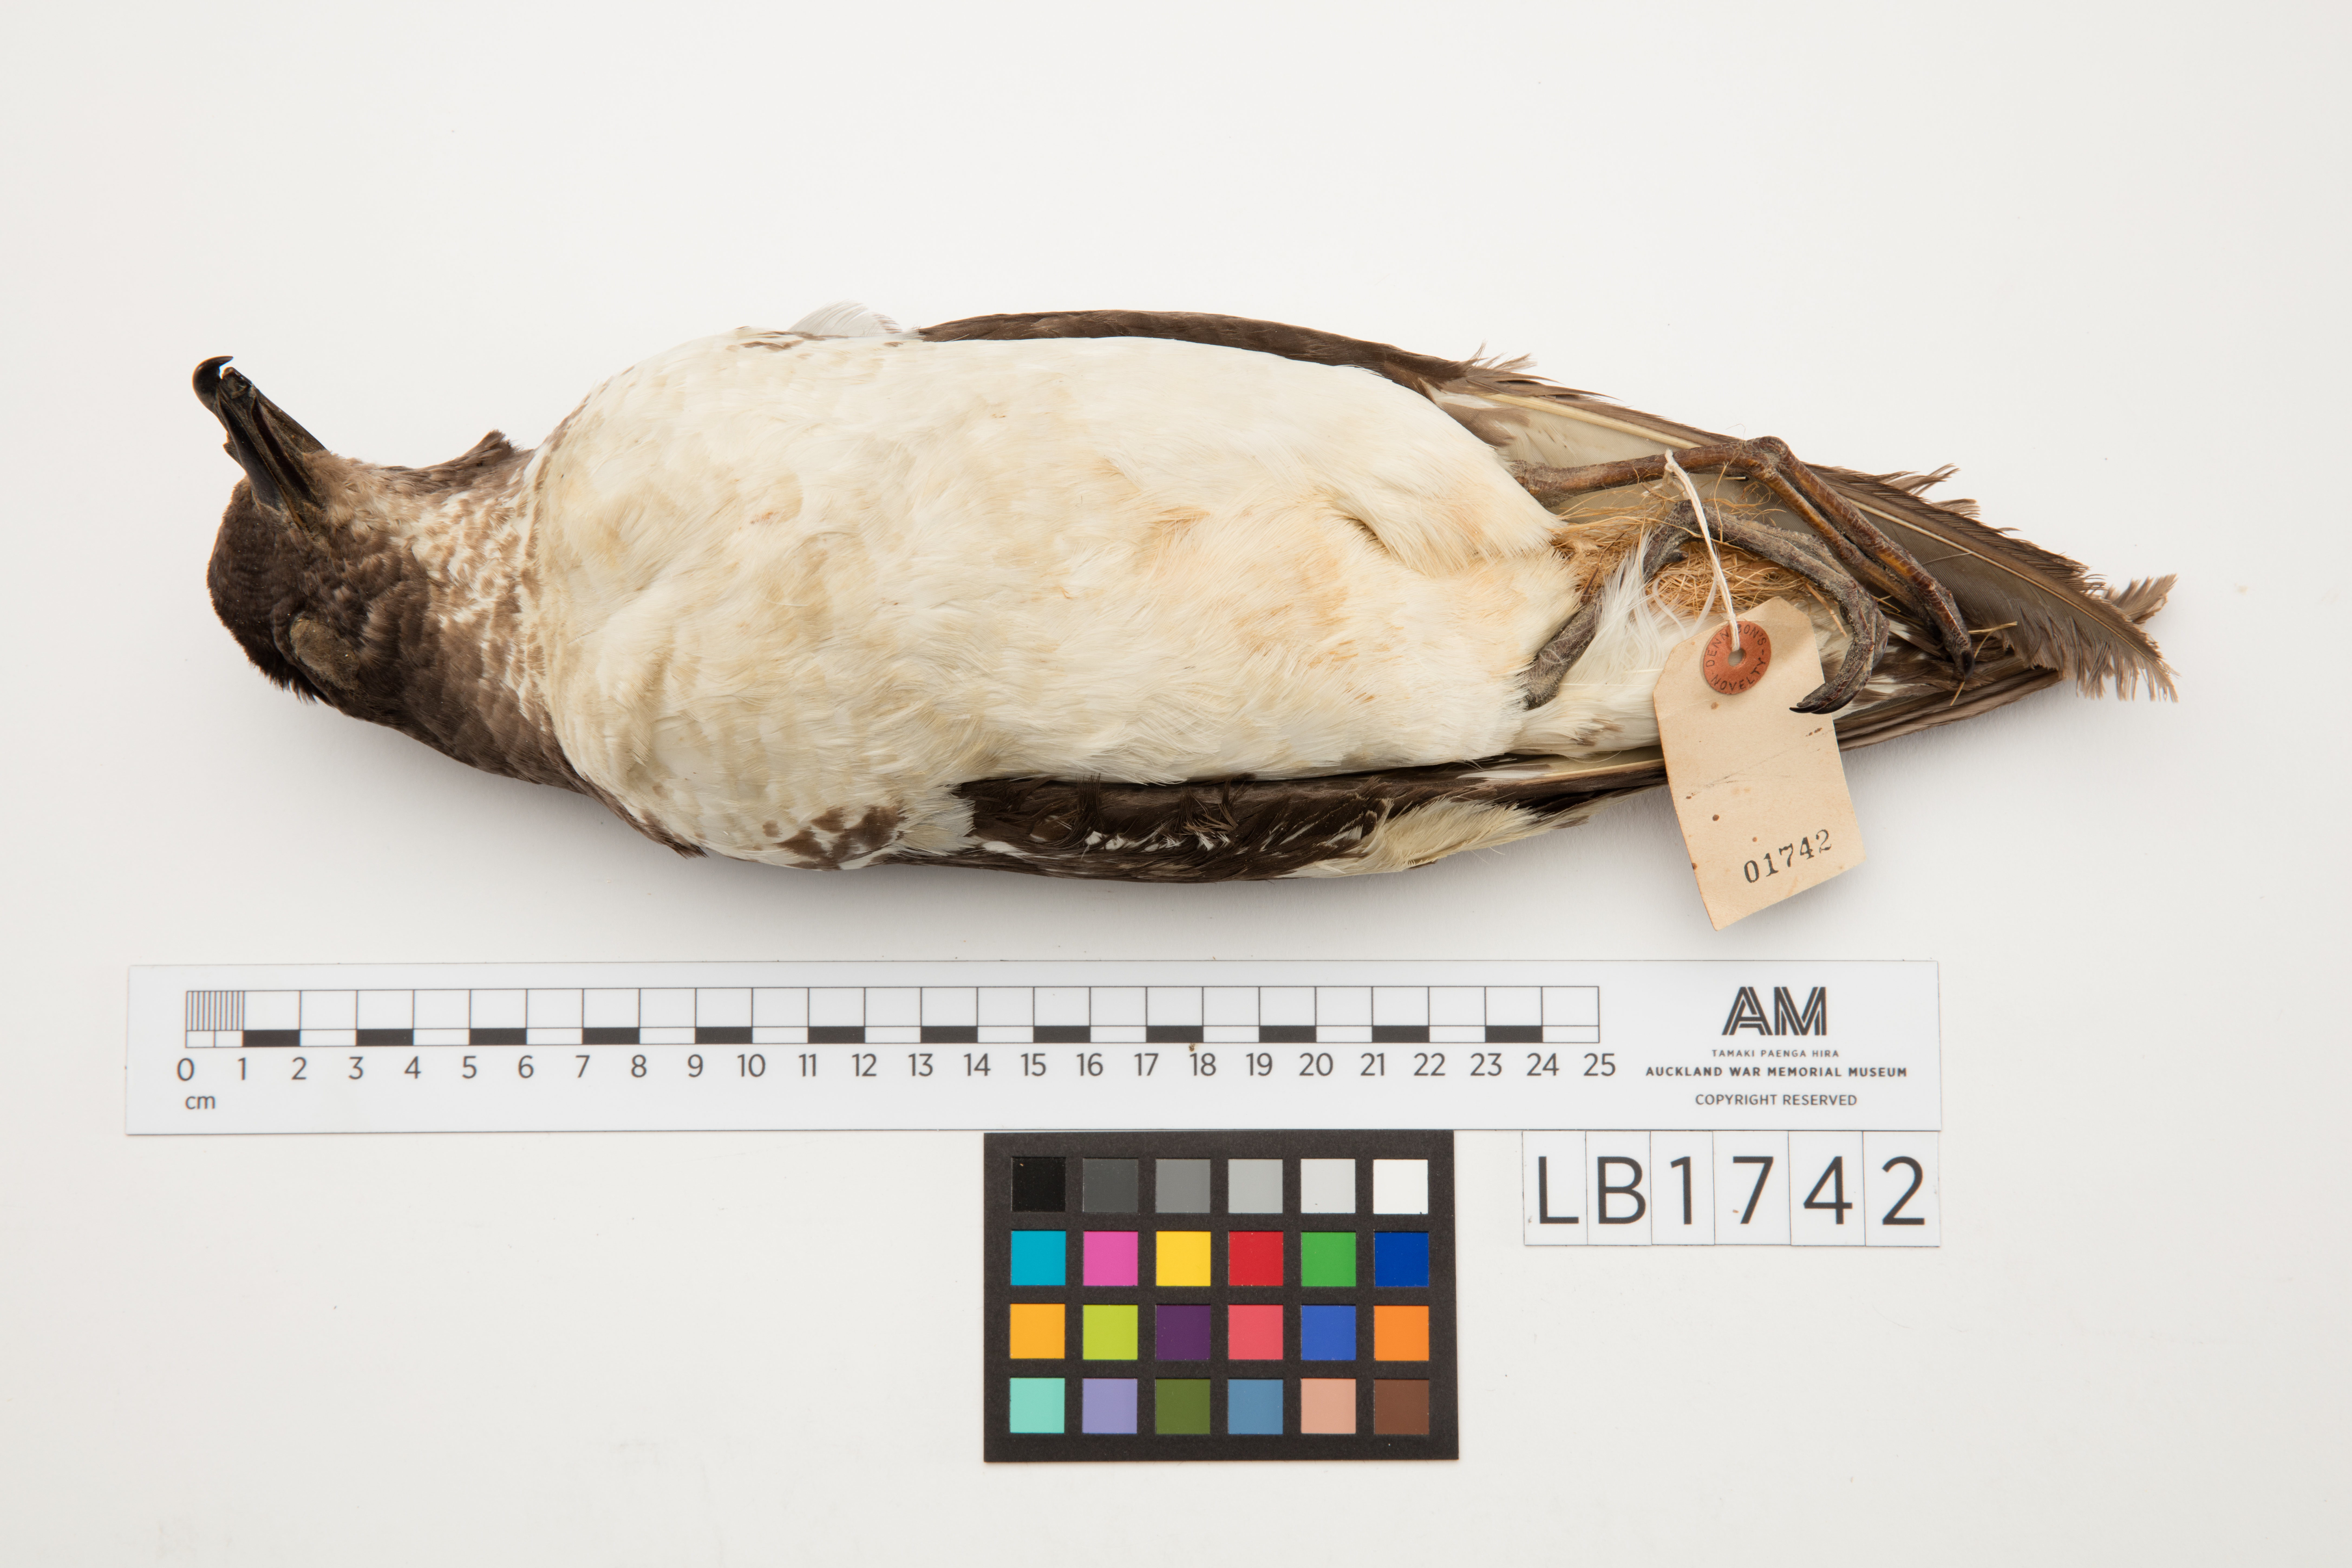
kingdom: Animalia
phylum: Chordata
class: Aves
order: Procellariiformes
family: Procellariidae
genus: Daption
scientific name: Daption capense
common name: Cape petrel
